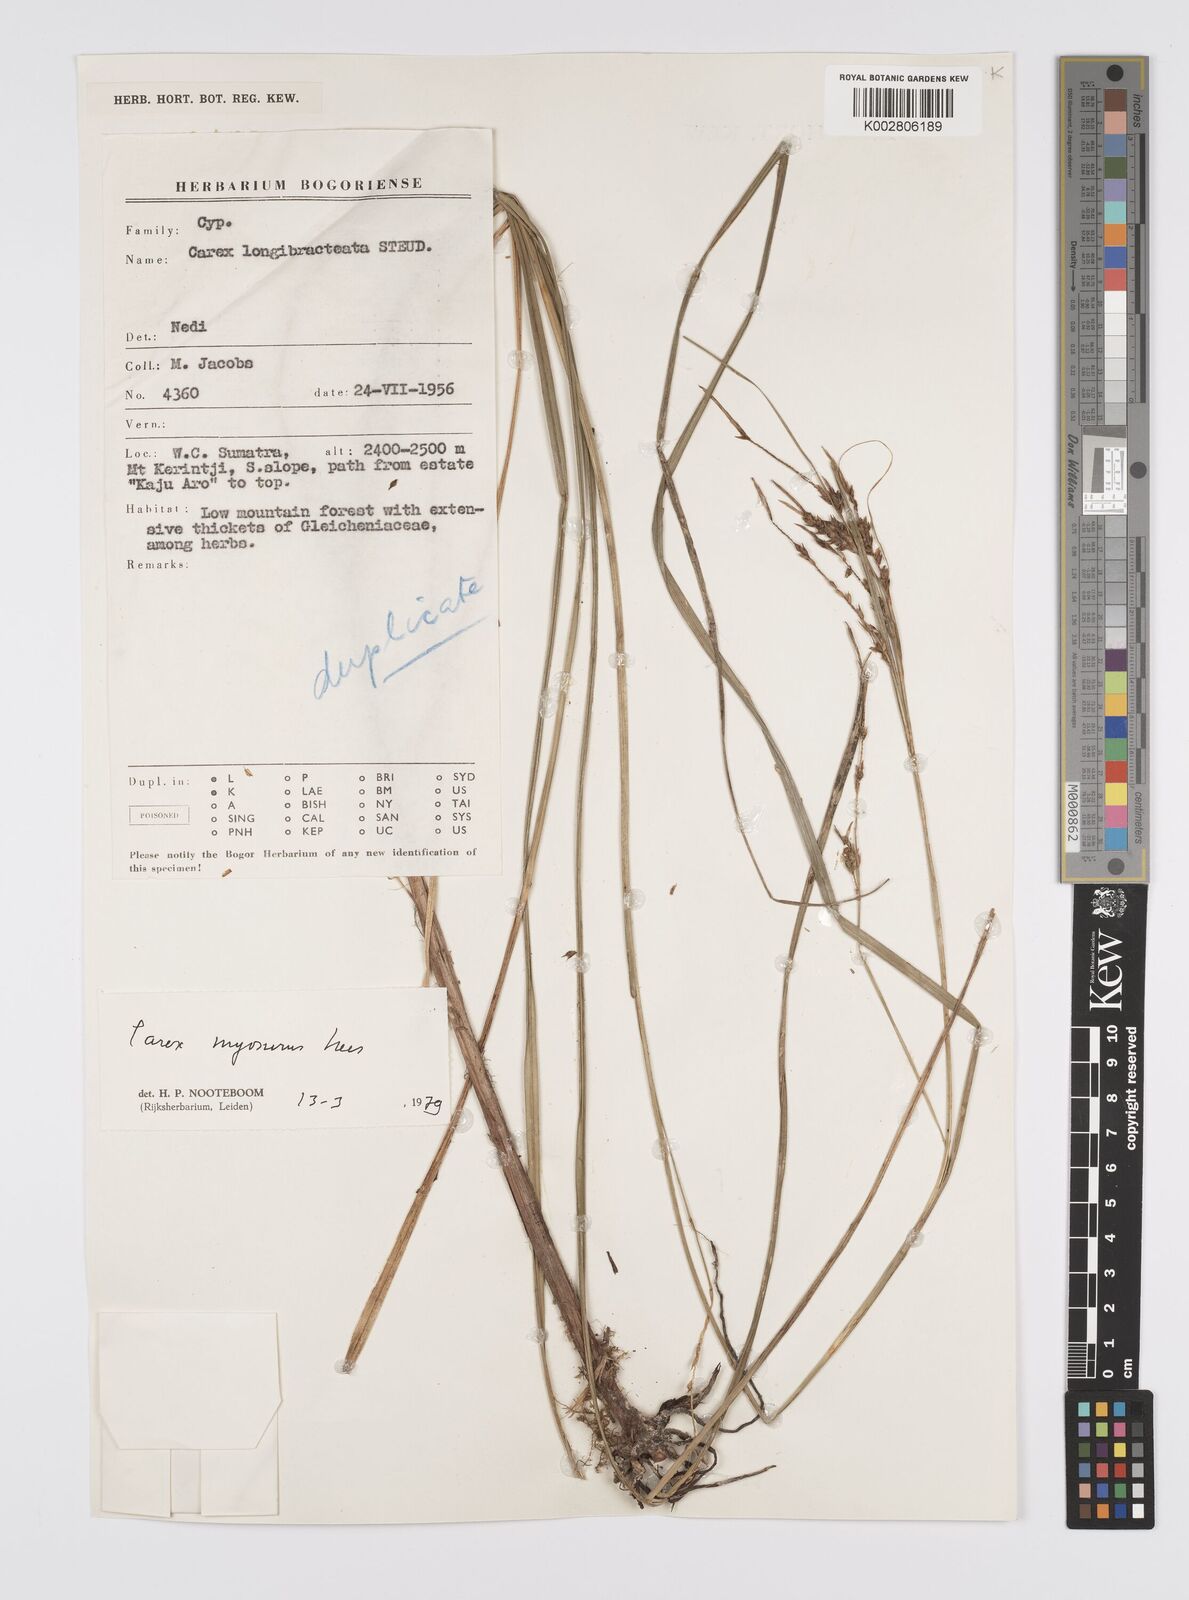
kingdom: Plantae
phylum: Tracheophyta
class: Liliopsida
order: Poales
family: Cyperaceae
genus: Carex
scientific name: Carex myosurus
